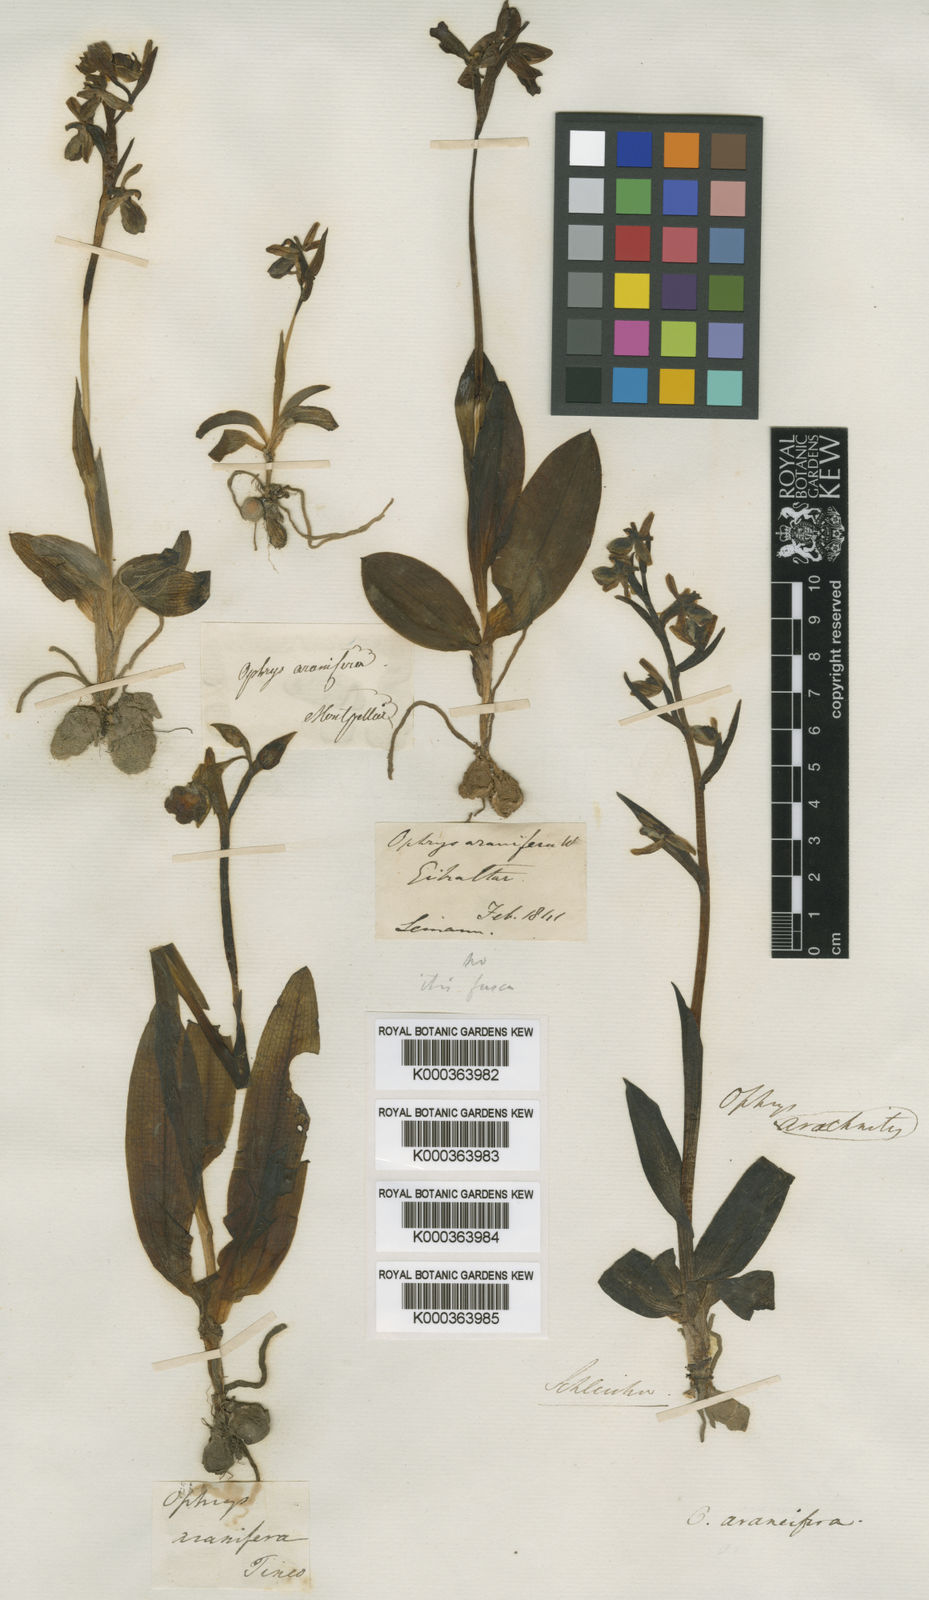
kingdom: Plantae
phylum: Tracheophyta
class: Liliopsida
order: Asparagales
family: Orchidaceae
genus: Ophrys
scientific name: Ophrys sphegodes
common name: Early spider-orchid
